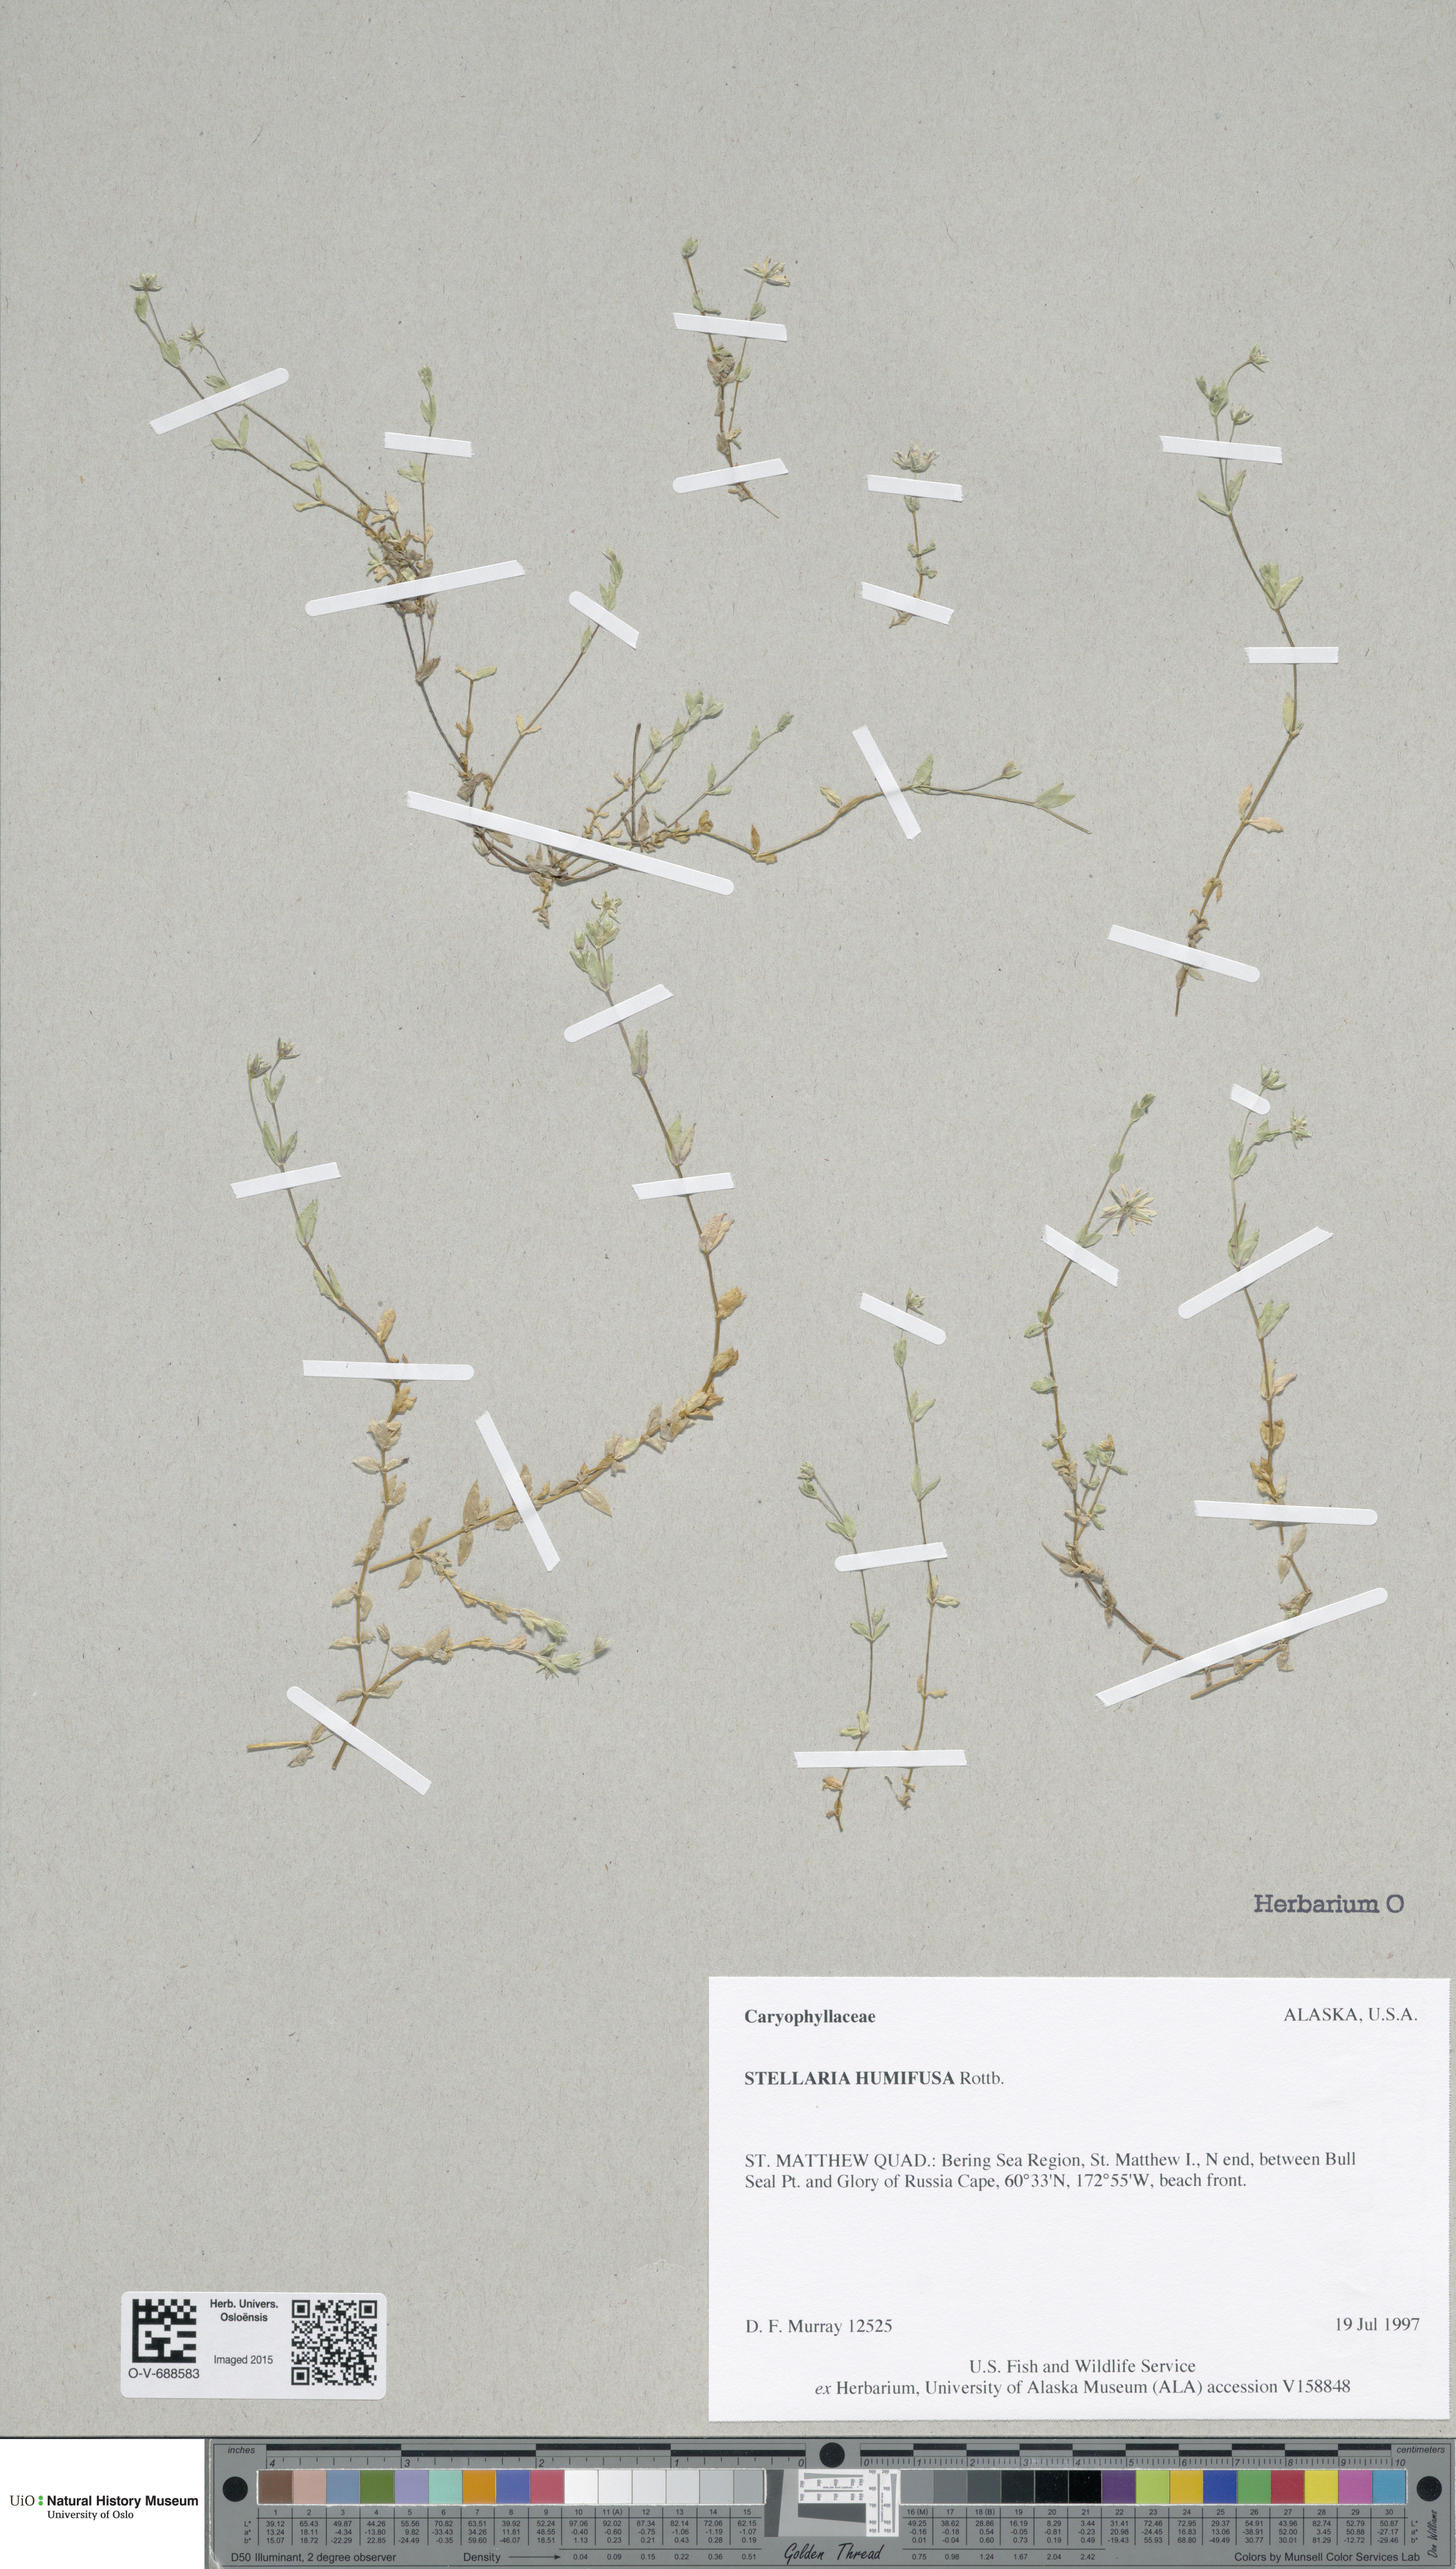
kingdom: Plantae
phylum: Tracheophyta
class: Magnoliopsida
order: Caryophyllales
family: Caryophyllaceae
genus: Stellaria
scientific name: Stellaria humifusa
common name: Creeping starwort
